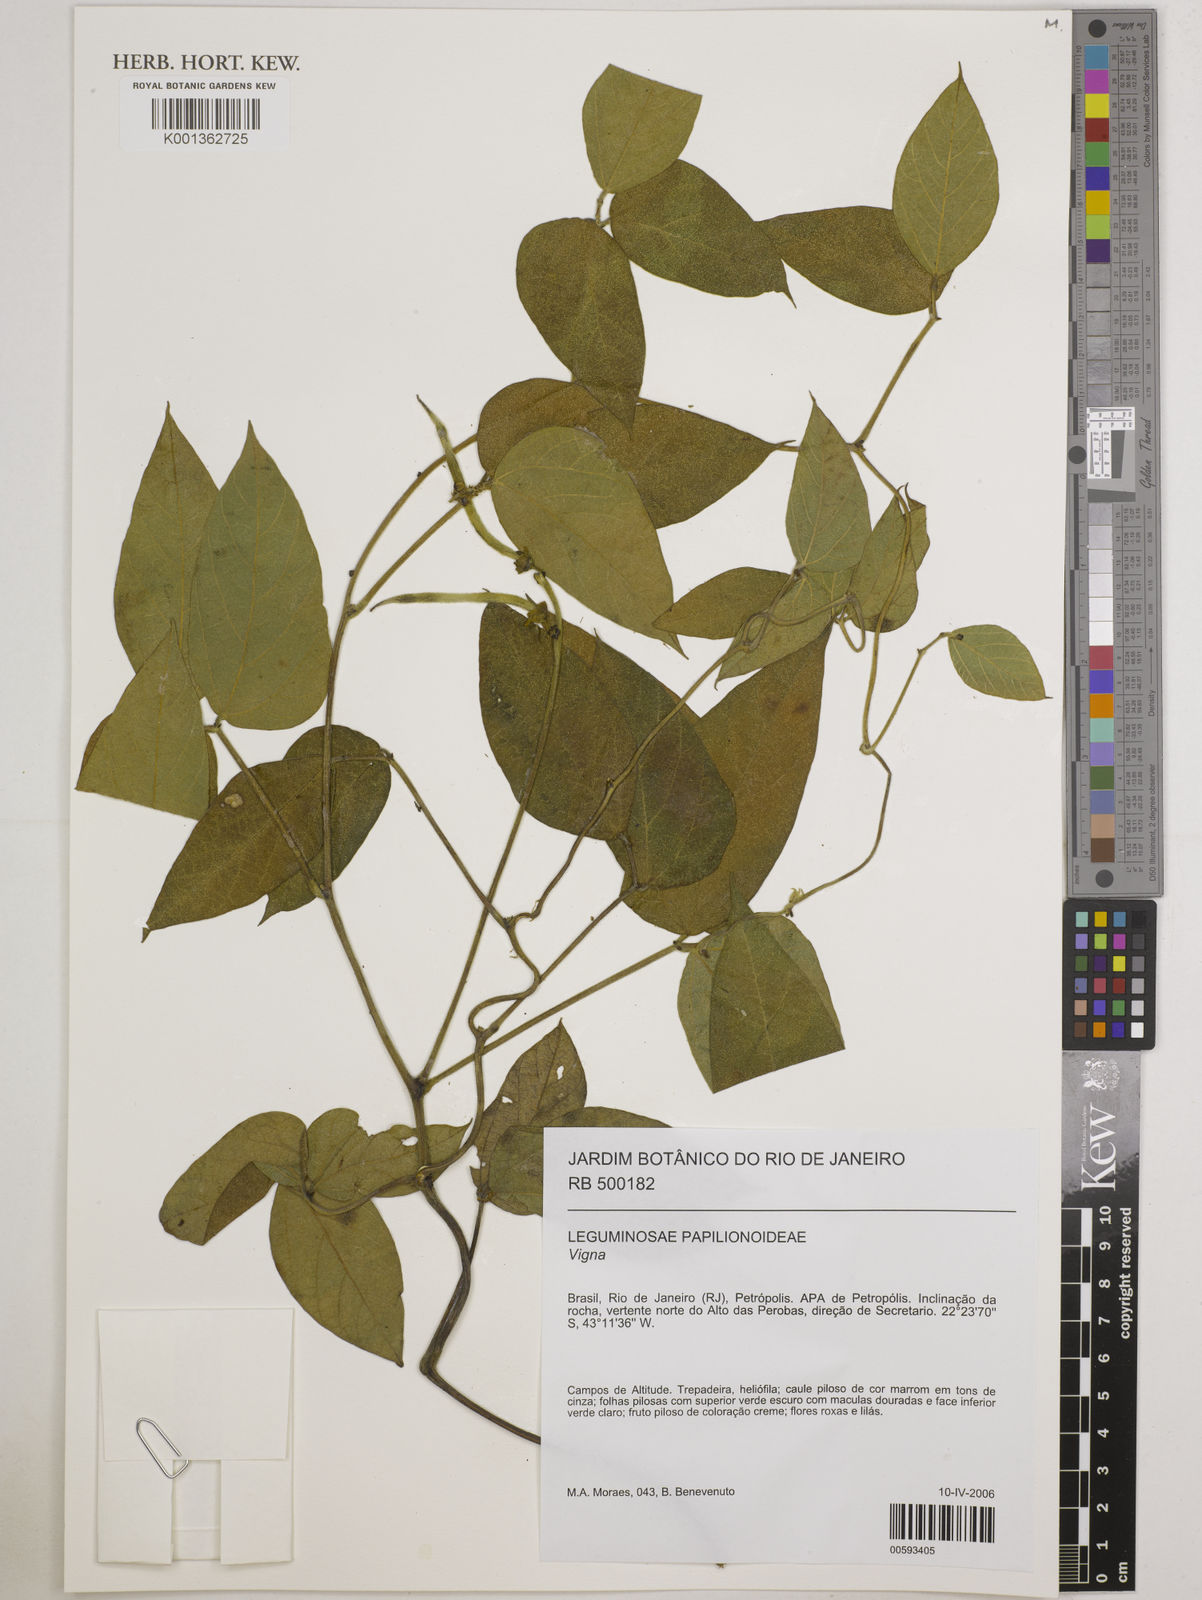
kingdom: Plantae
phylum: Tracheophyta
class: Magnoliopsida
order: Fabales
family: Fabaceae
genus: Vigna
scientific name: Vigna
